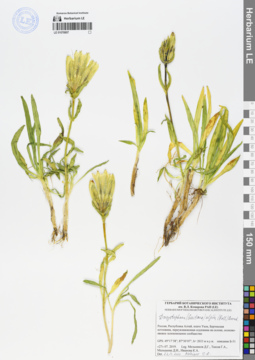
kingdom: Plantae
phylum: Tracheophyta
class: Magnoliopsida
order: Gentianales
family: Gentianaceae
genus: Gentiana
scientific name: Gentiana algida
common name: Arctic gentian
